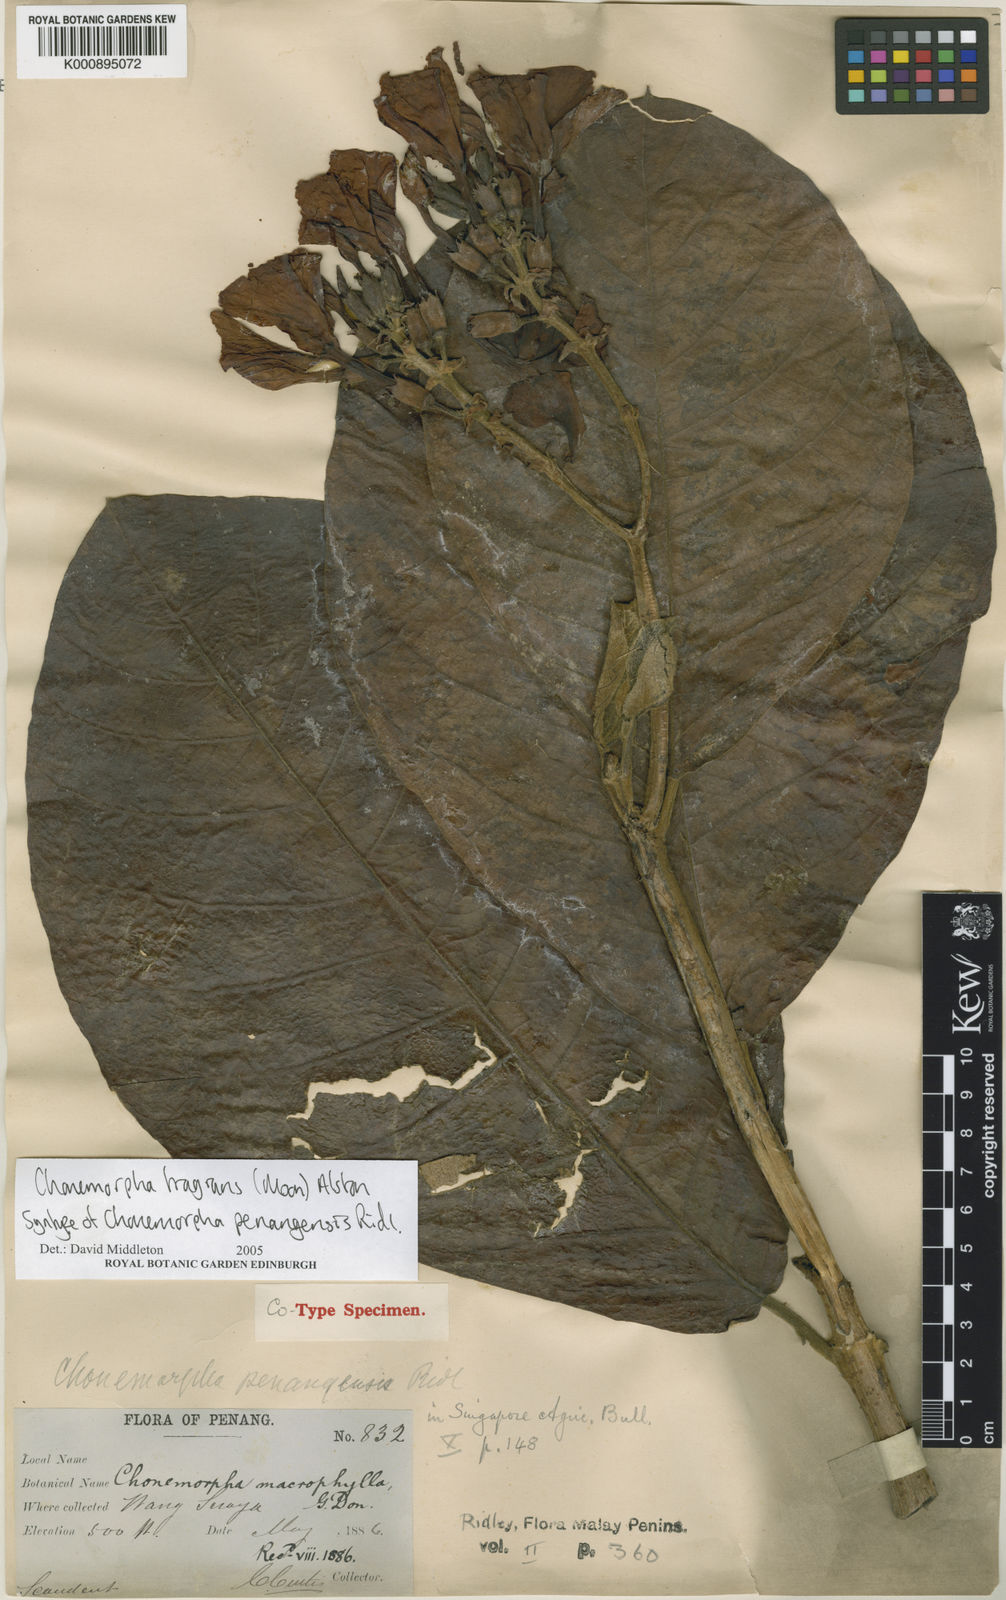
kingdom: Plantae
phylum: Tracheophyta
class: Magnoliopsida
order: Gentianales
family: Apocynaceae
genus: Chonemorpha
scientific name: Chonemorpha fragrans
